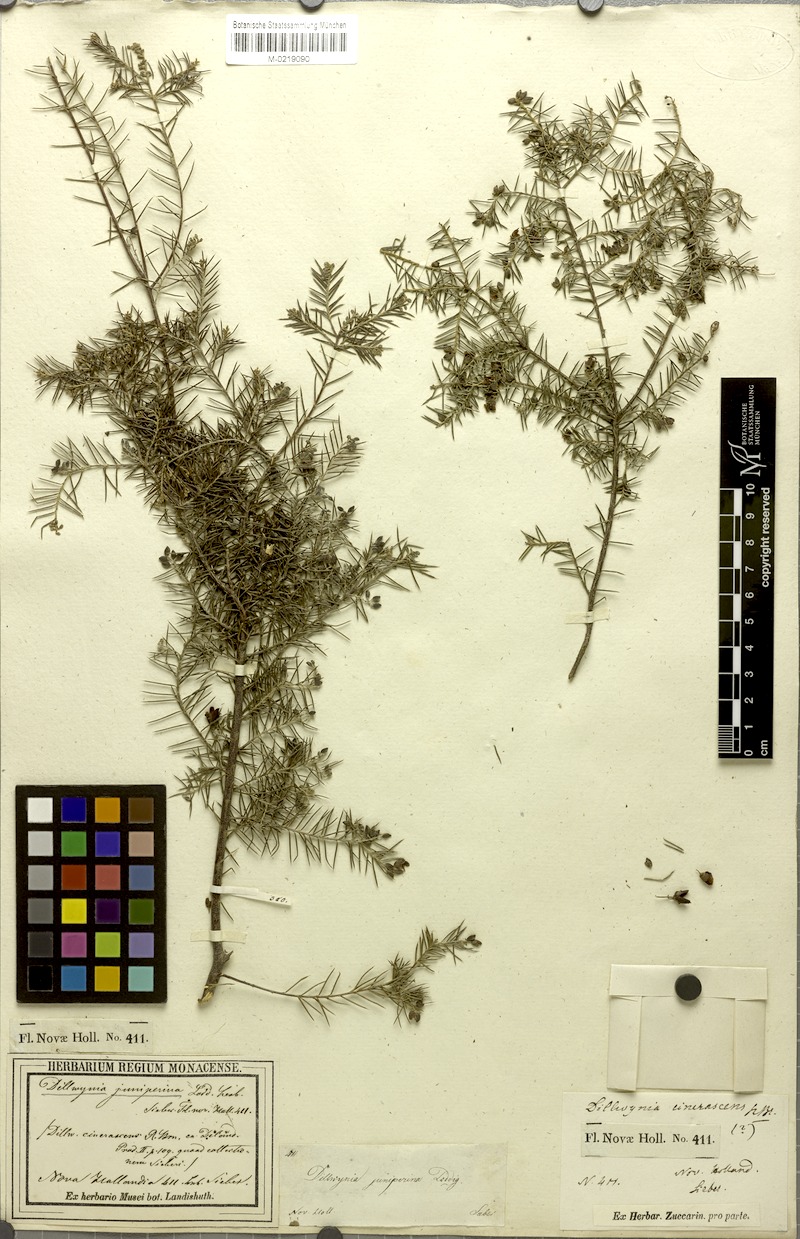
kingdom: Plantae
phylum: Tracheophyta
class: Magnoliopsida
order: Fabales
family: Fabaceae
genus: Dillwynia
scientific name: Dillwynia juniperina
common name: Prickly parrot pea
